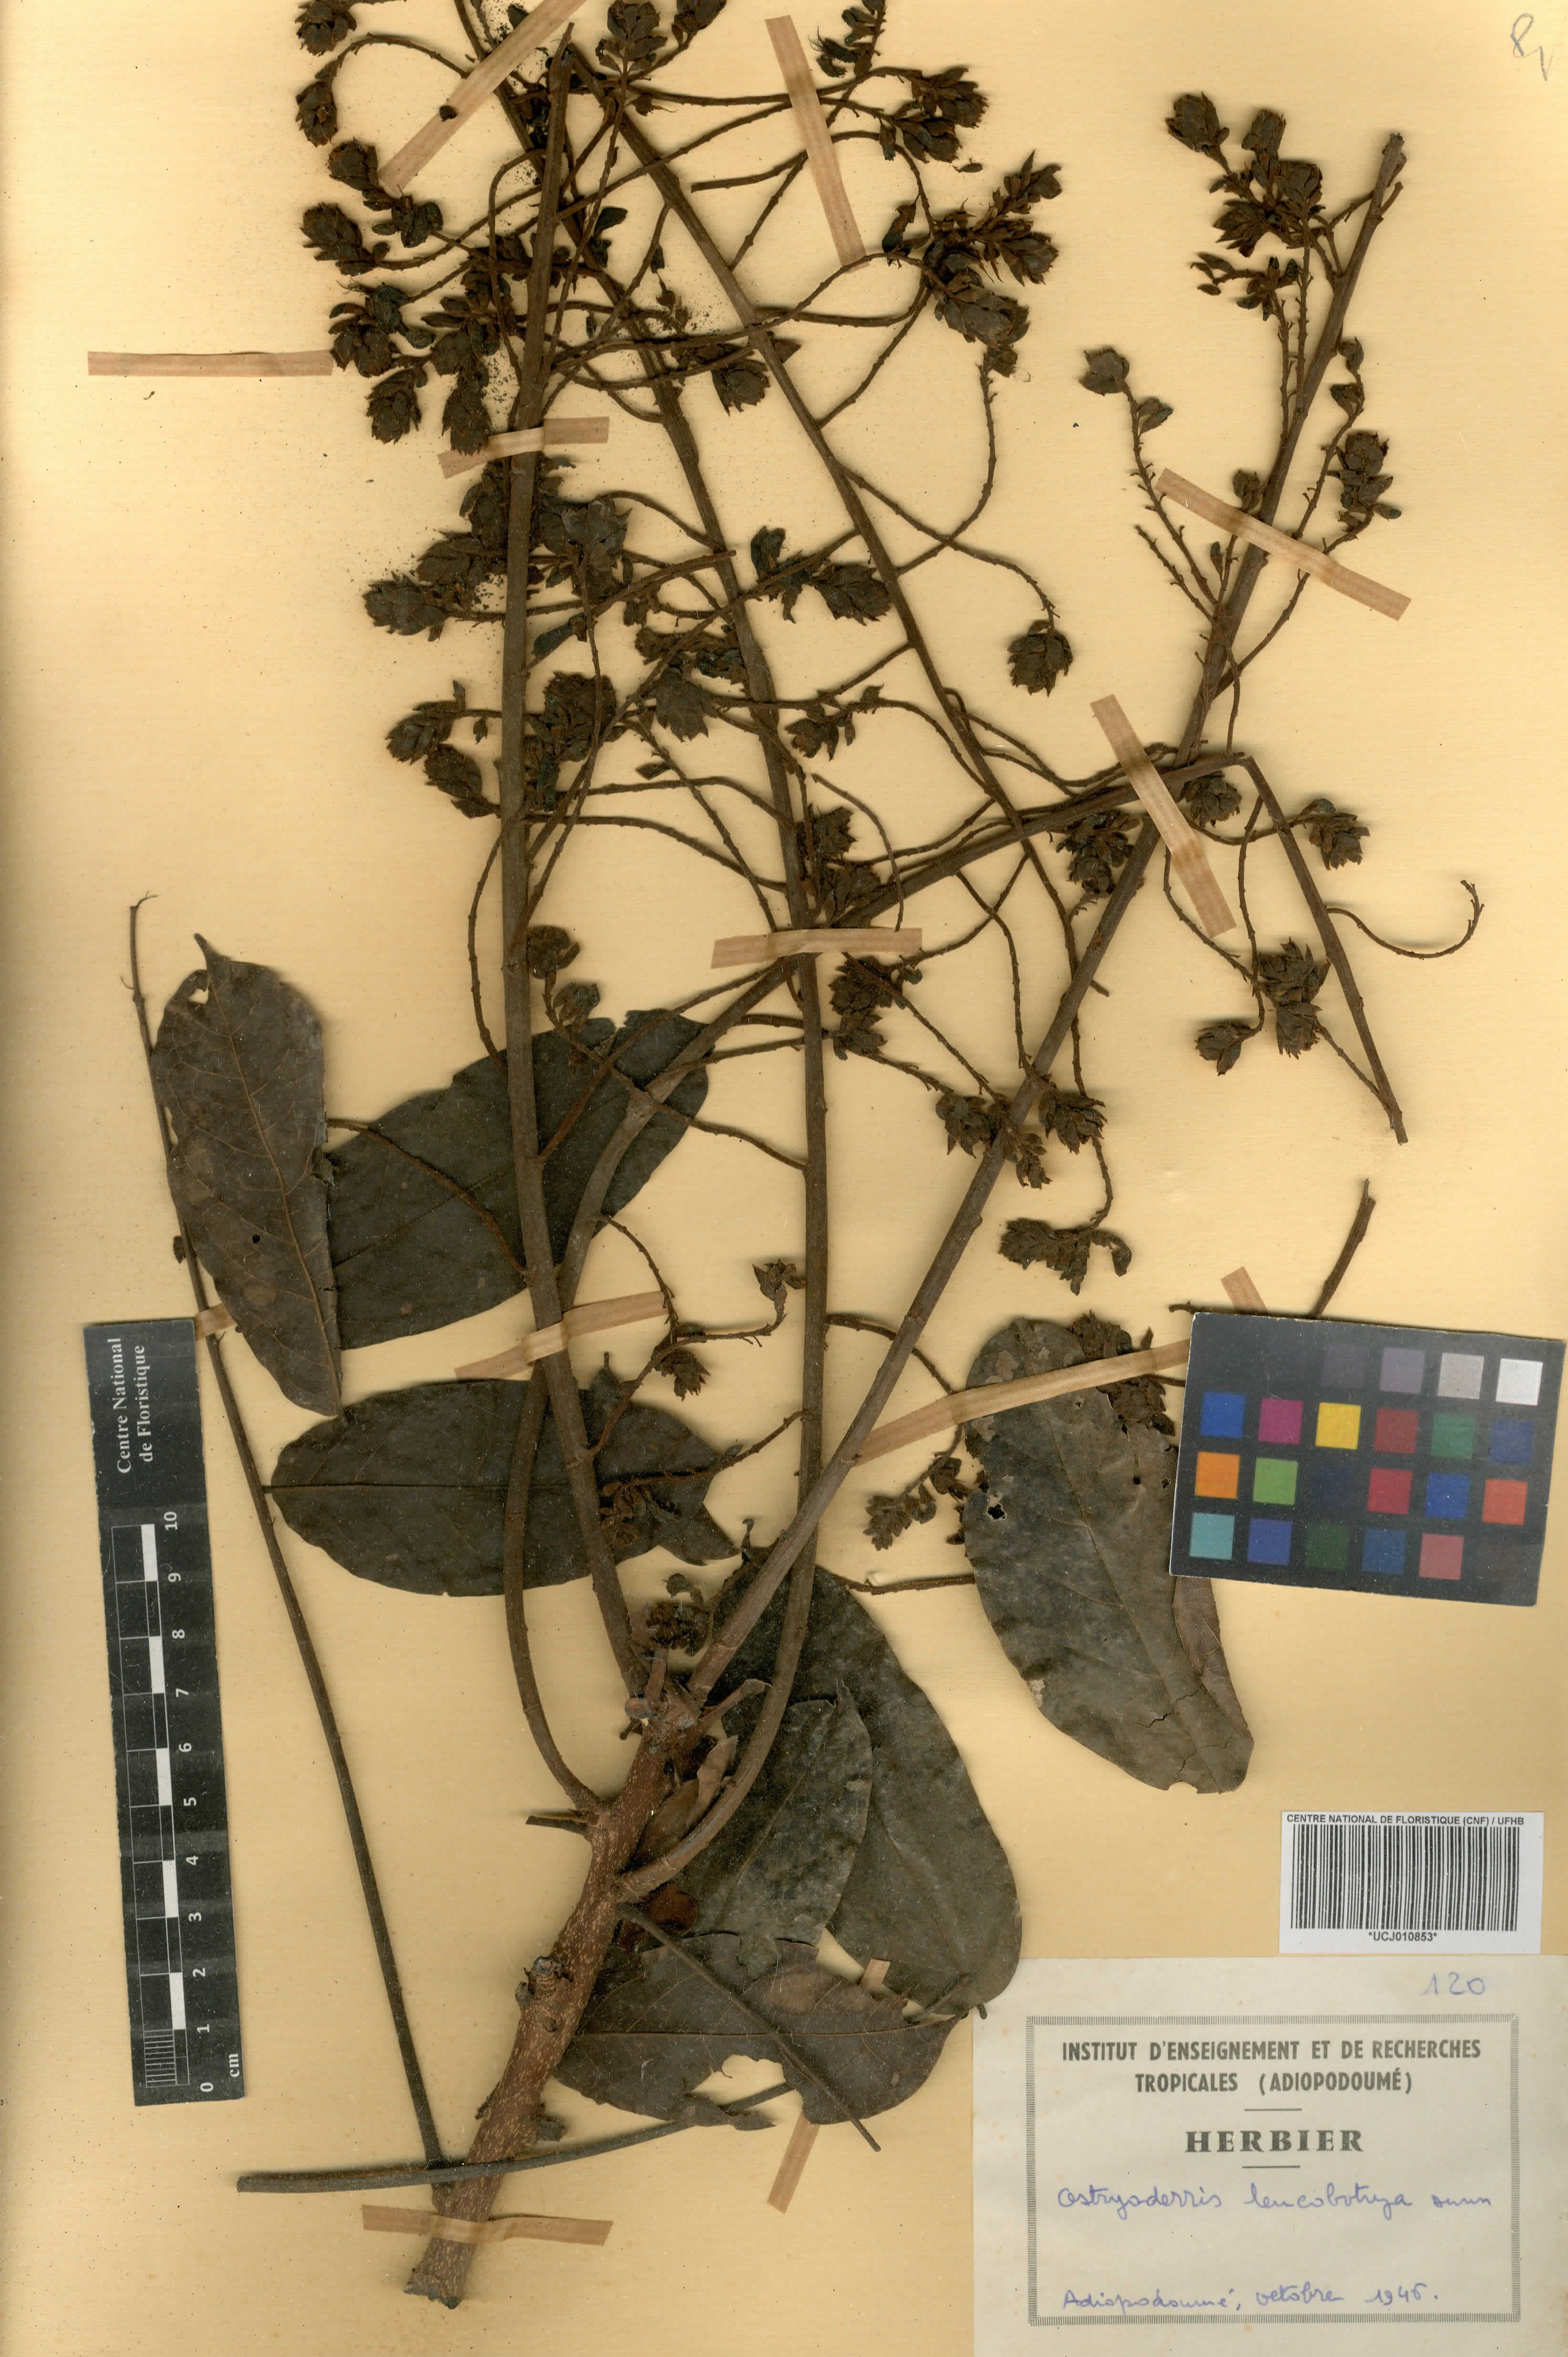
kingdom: Plantae
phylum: Tracheophyta
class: Magnoliopsida
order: Fabales
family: Fabaceae
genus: Aganope
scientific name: Aganope leucobotrya
